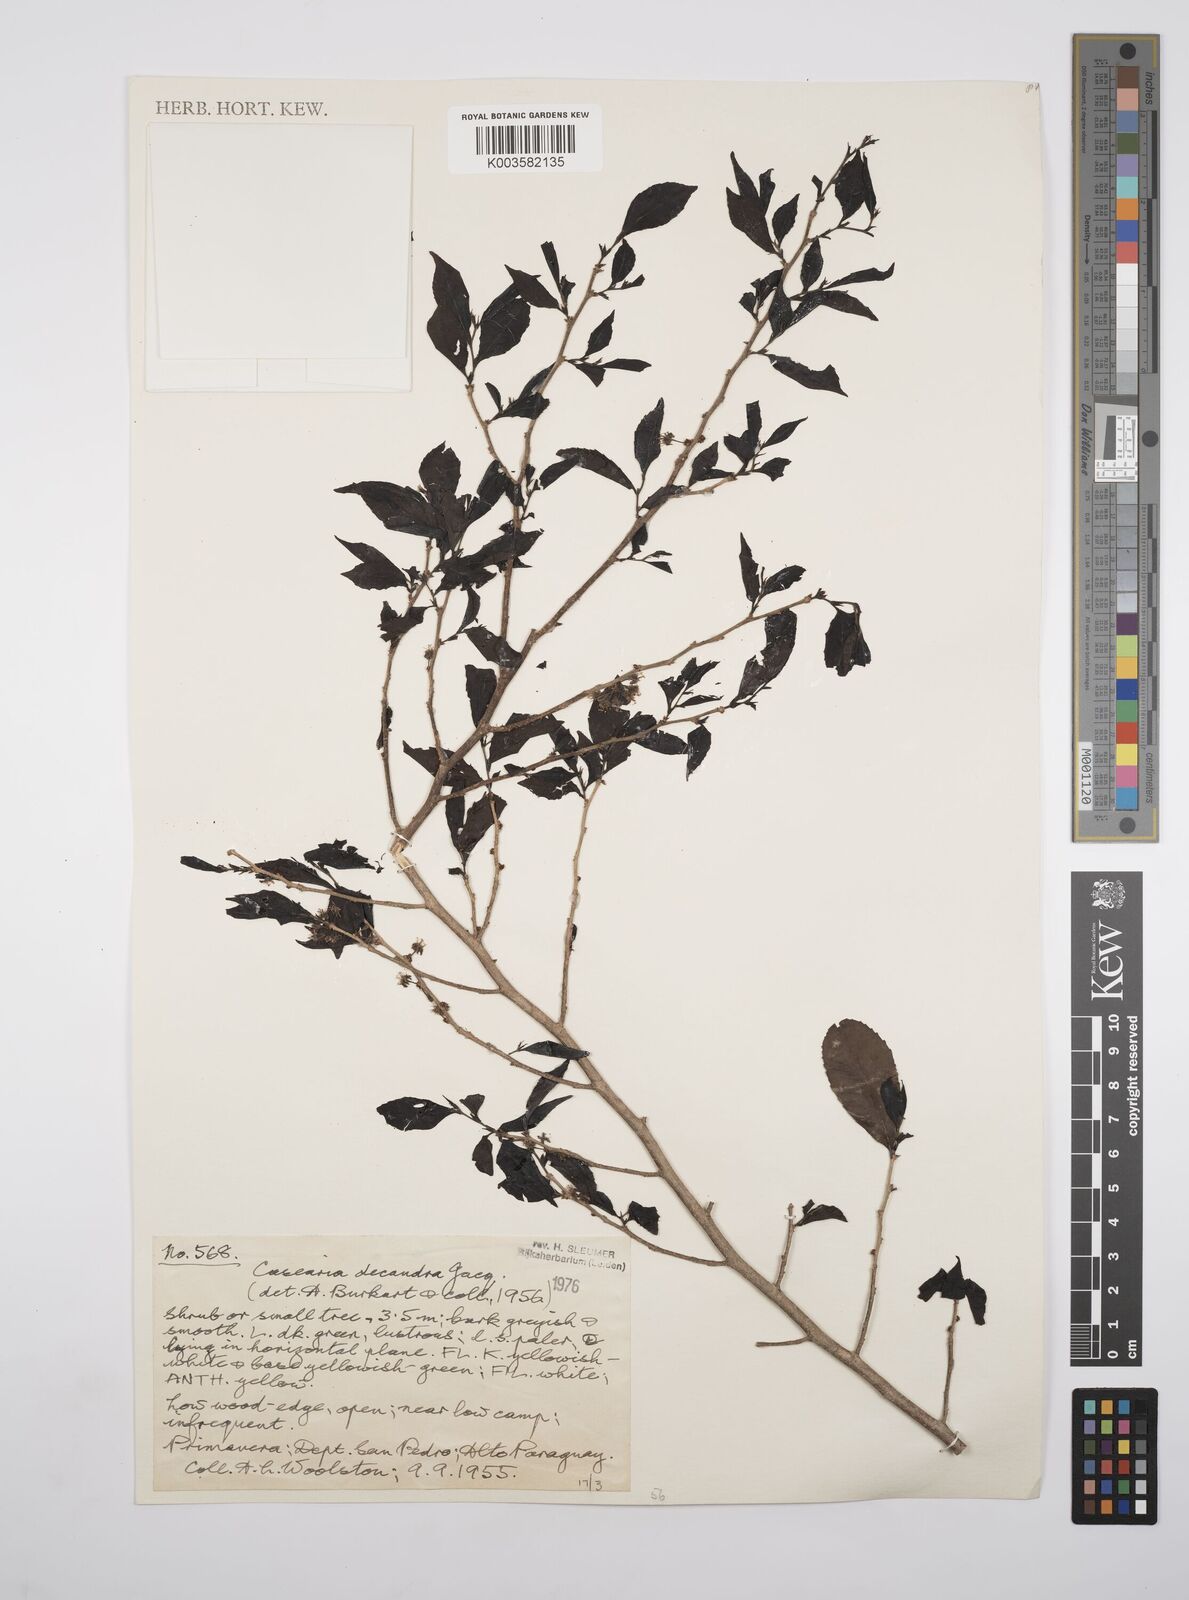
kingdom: Plantae
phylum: Tracheophyta
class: Magnoliopsida
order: Malpighiales
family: Salicaceae
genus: Casearia
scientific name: Casearia
